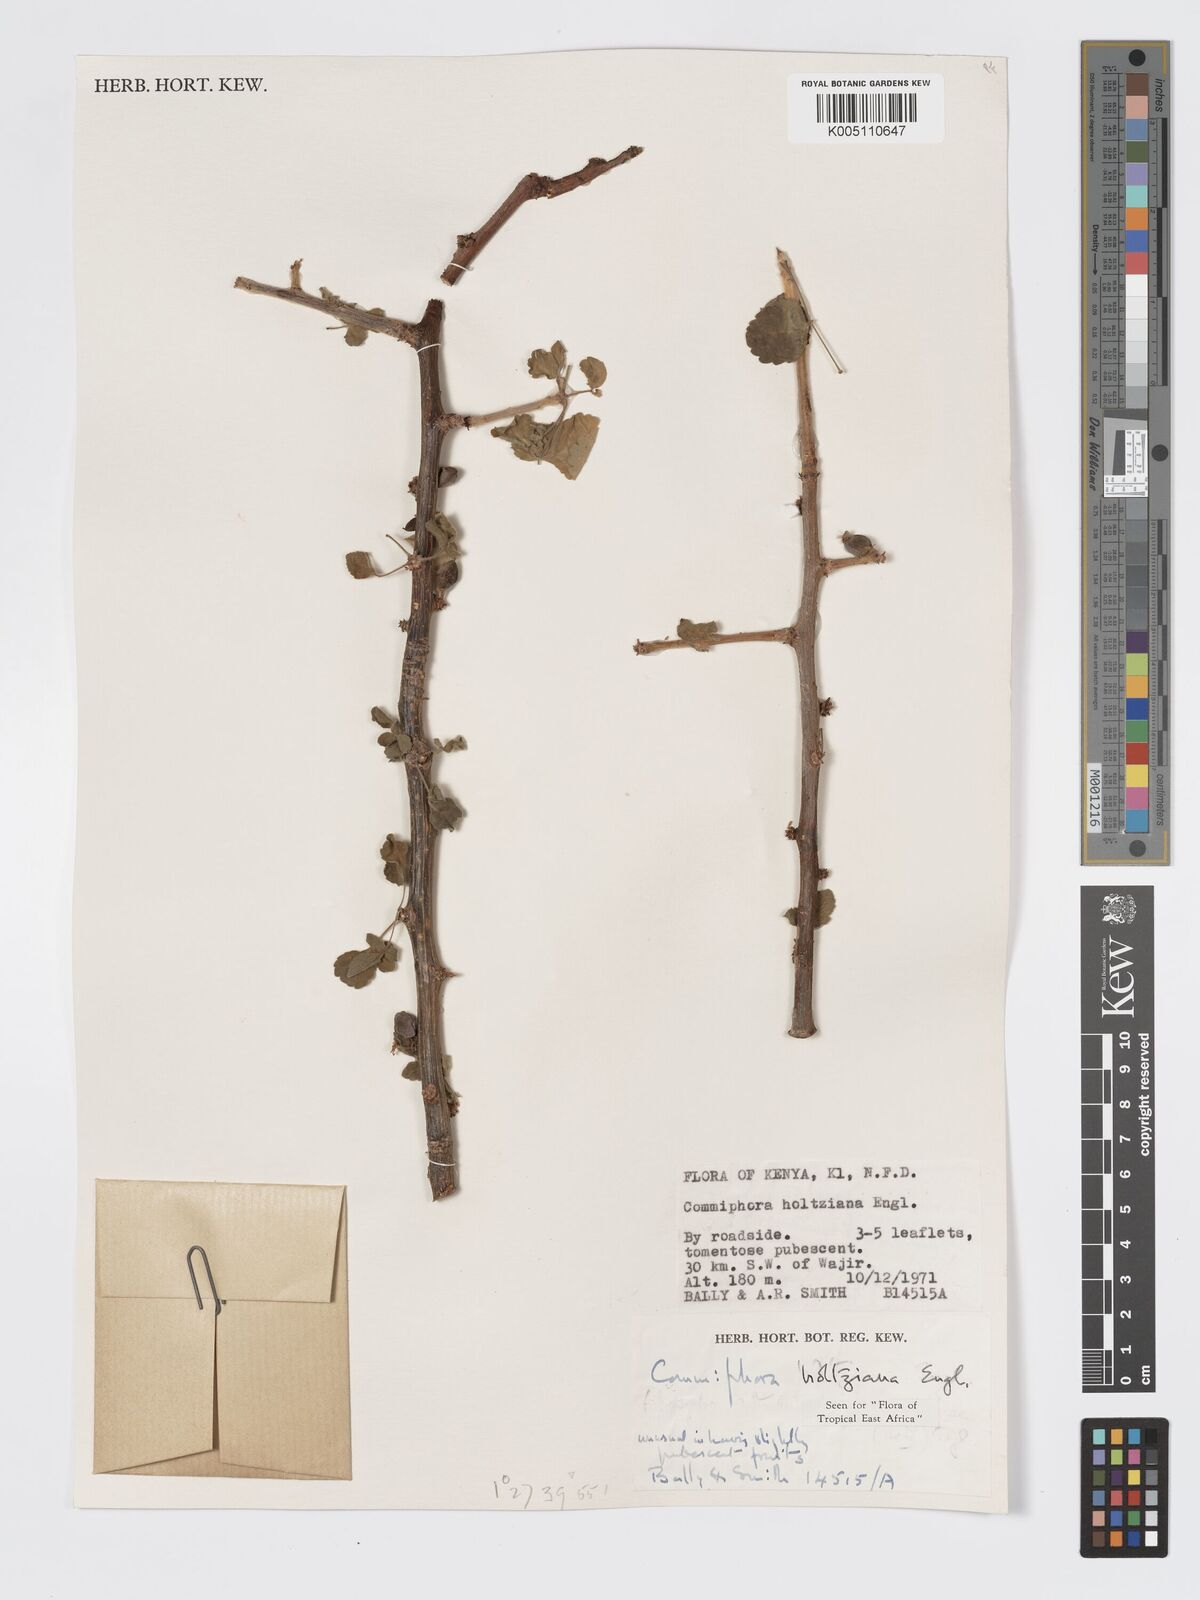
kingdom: Plantae
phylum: Tracheophyta
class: Magnoliopsida
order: Sapindales
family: Burseraceae
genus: Commiphora
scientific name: Commiphora kataf
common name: Bisabol myrrh
